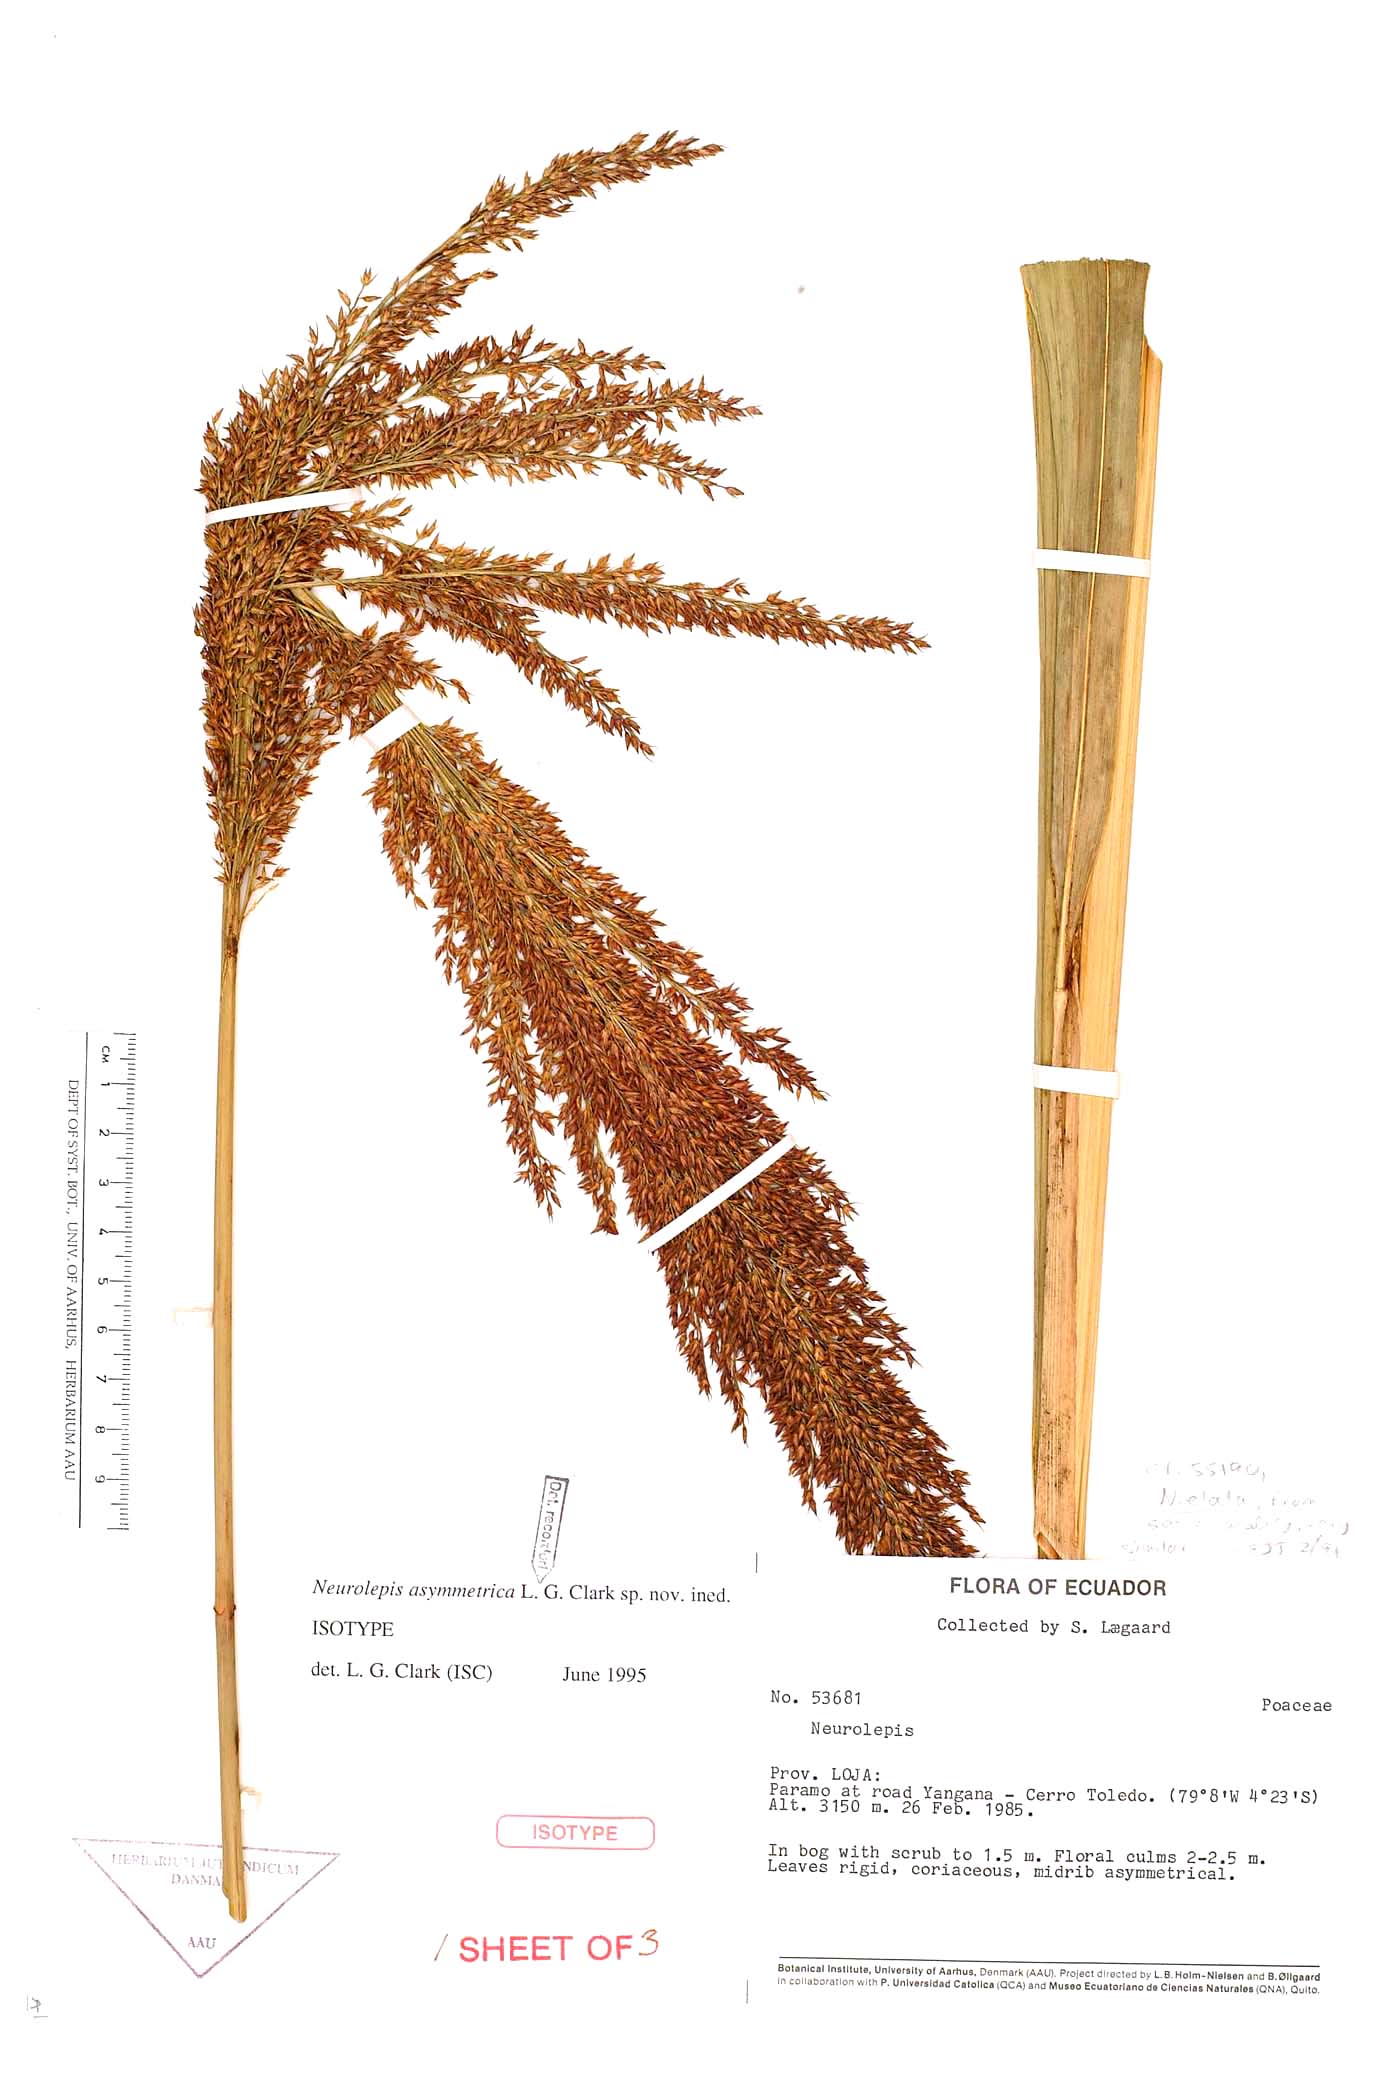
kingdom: Plantae
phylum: Tracheophyta
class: Liliopsida
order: Poales
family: Poaceae
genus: Chusquea
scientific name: Chusquea asymmetrica
